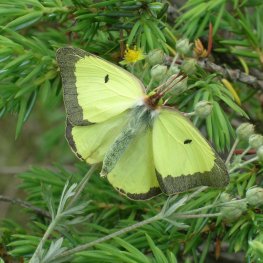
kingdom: Animalia
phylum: Arthropoda
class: Insecta
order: Lepidoptera
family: Pieridae
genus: Colias
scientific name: Colias philodice
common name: Clouded Sulphur
